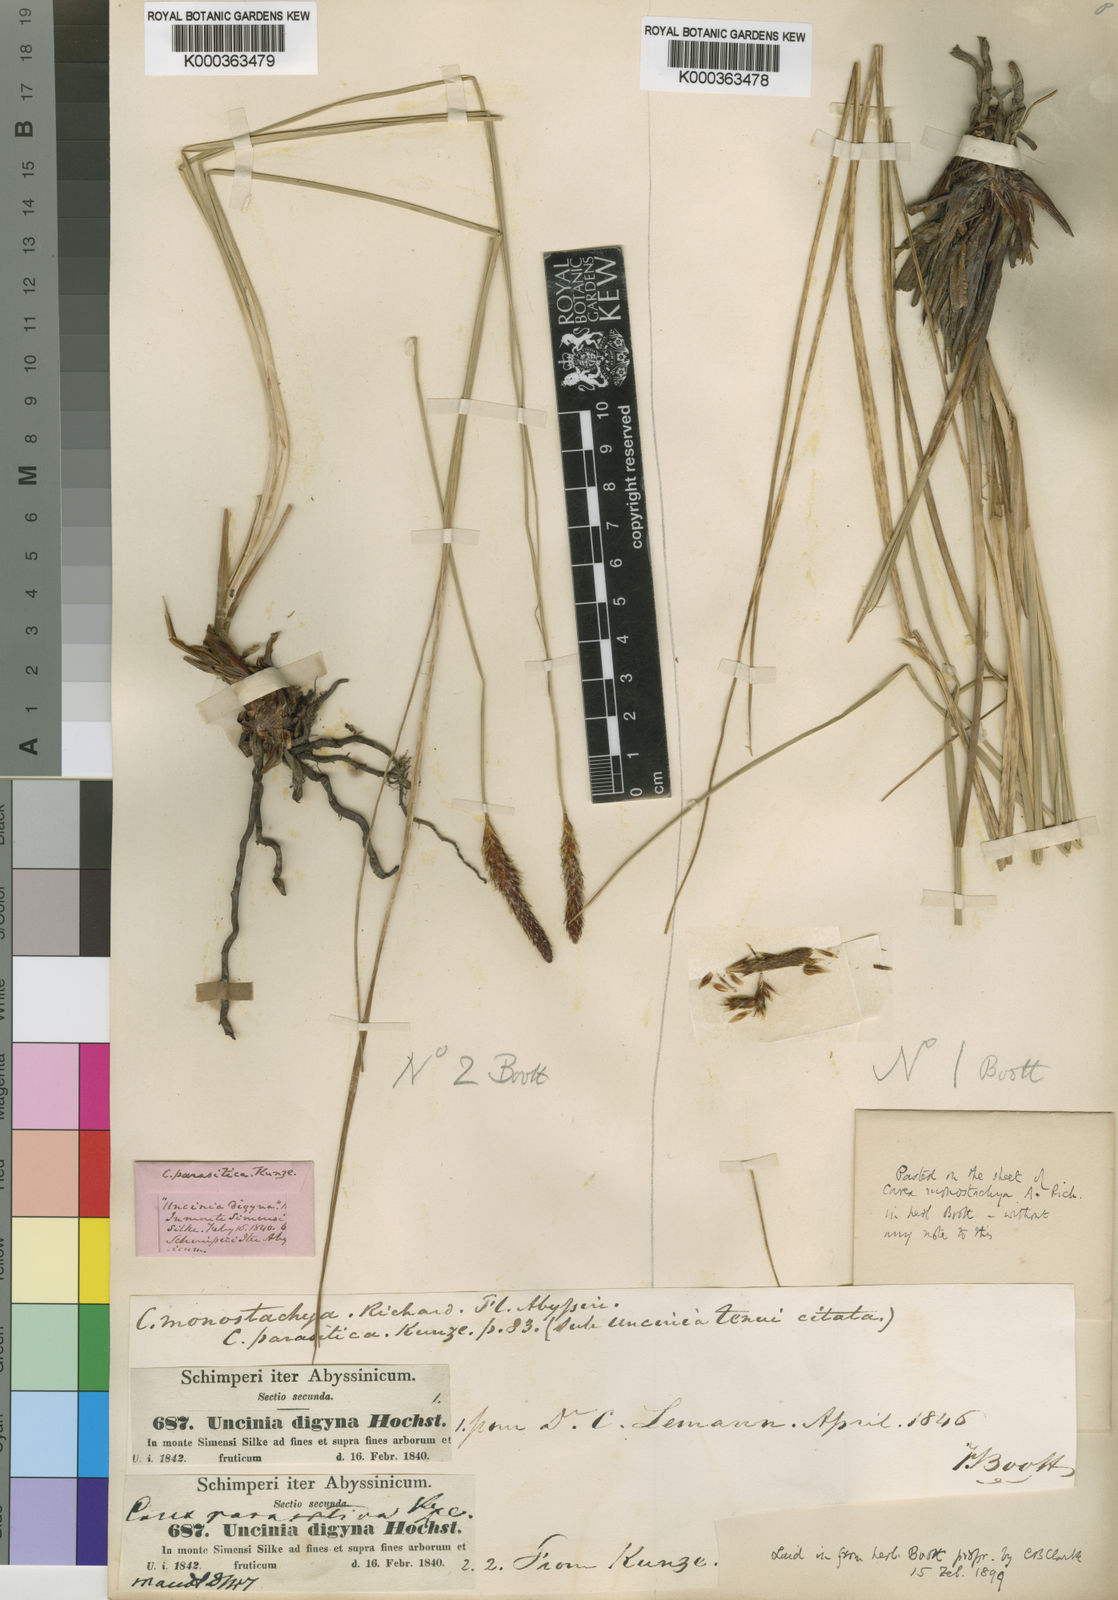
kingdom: Plantae
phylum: Tracheophyta
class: Liliopsida
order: Poales
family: Cyperaceae
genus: Carex
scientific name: Carex monostachya
